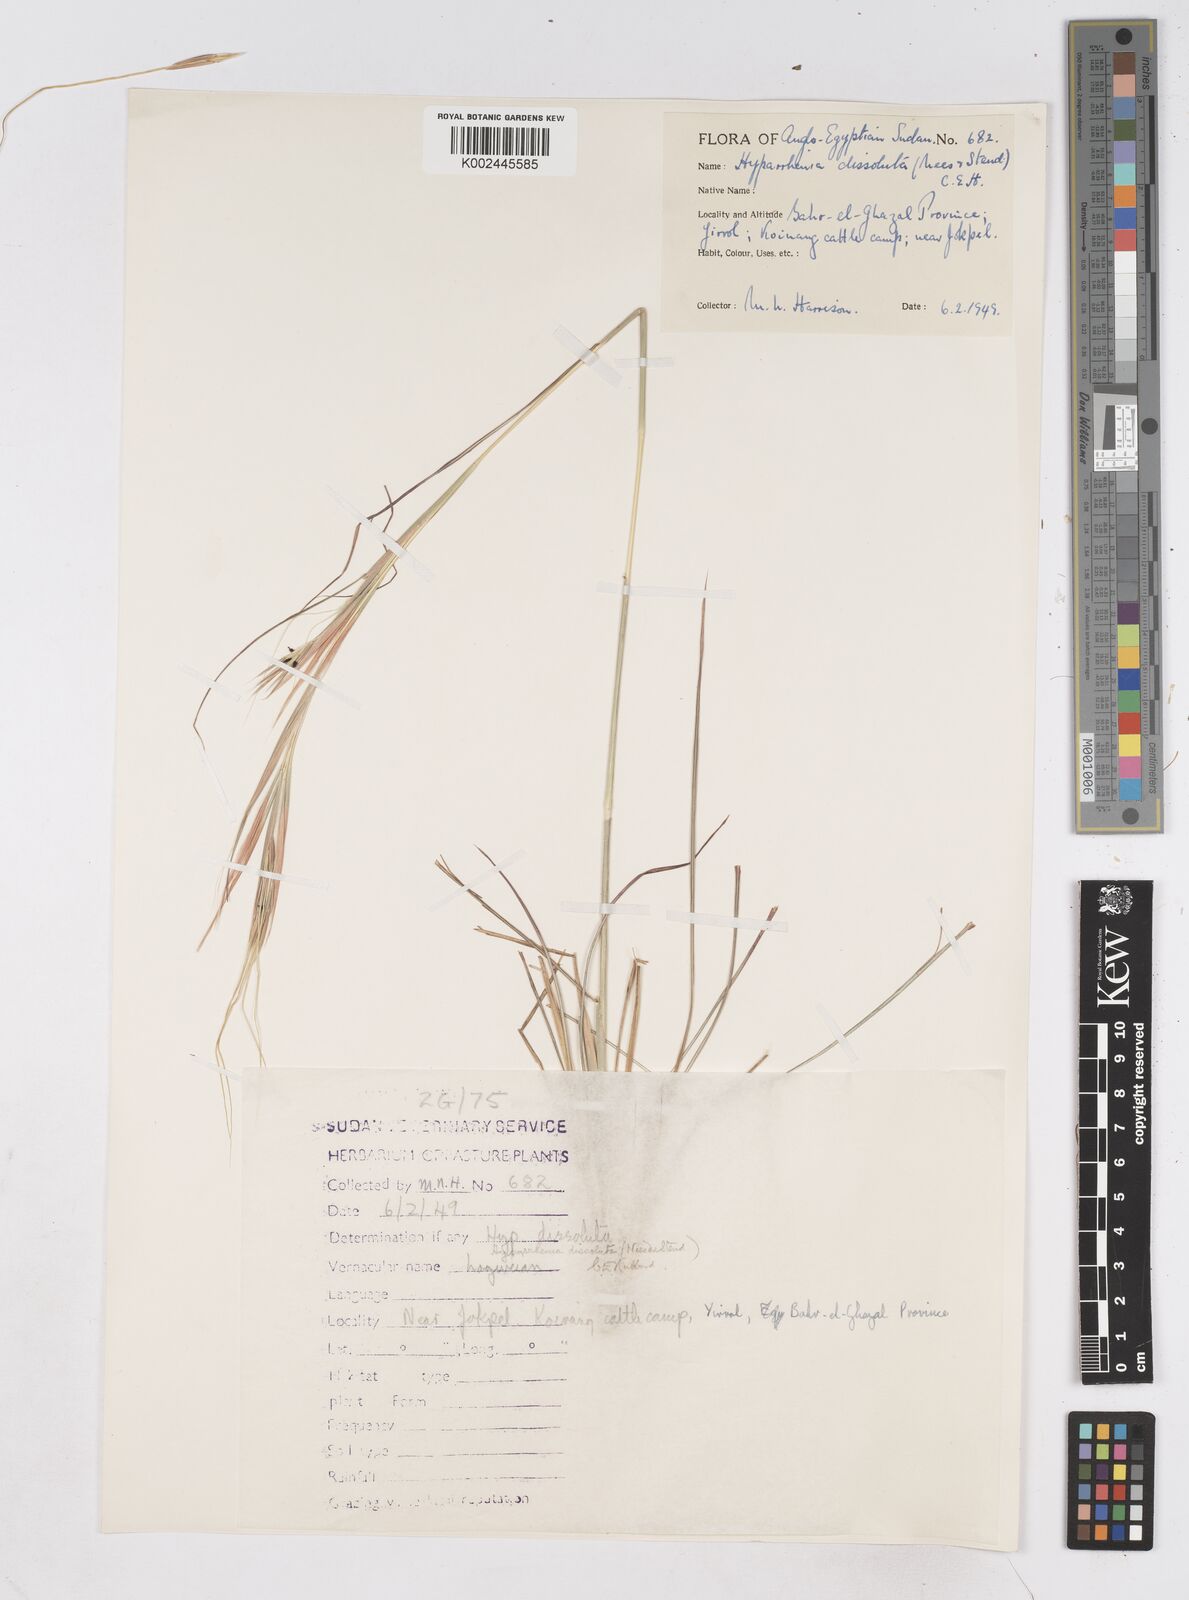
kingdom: Plantae
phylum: Tracheophyta
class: Liliopsida
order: Poales
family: Poaceae
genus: Hyperthelia
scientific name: Hyperthelia dissoluta
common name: Yellow thatching grass
